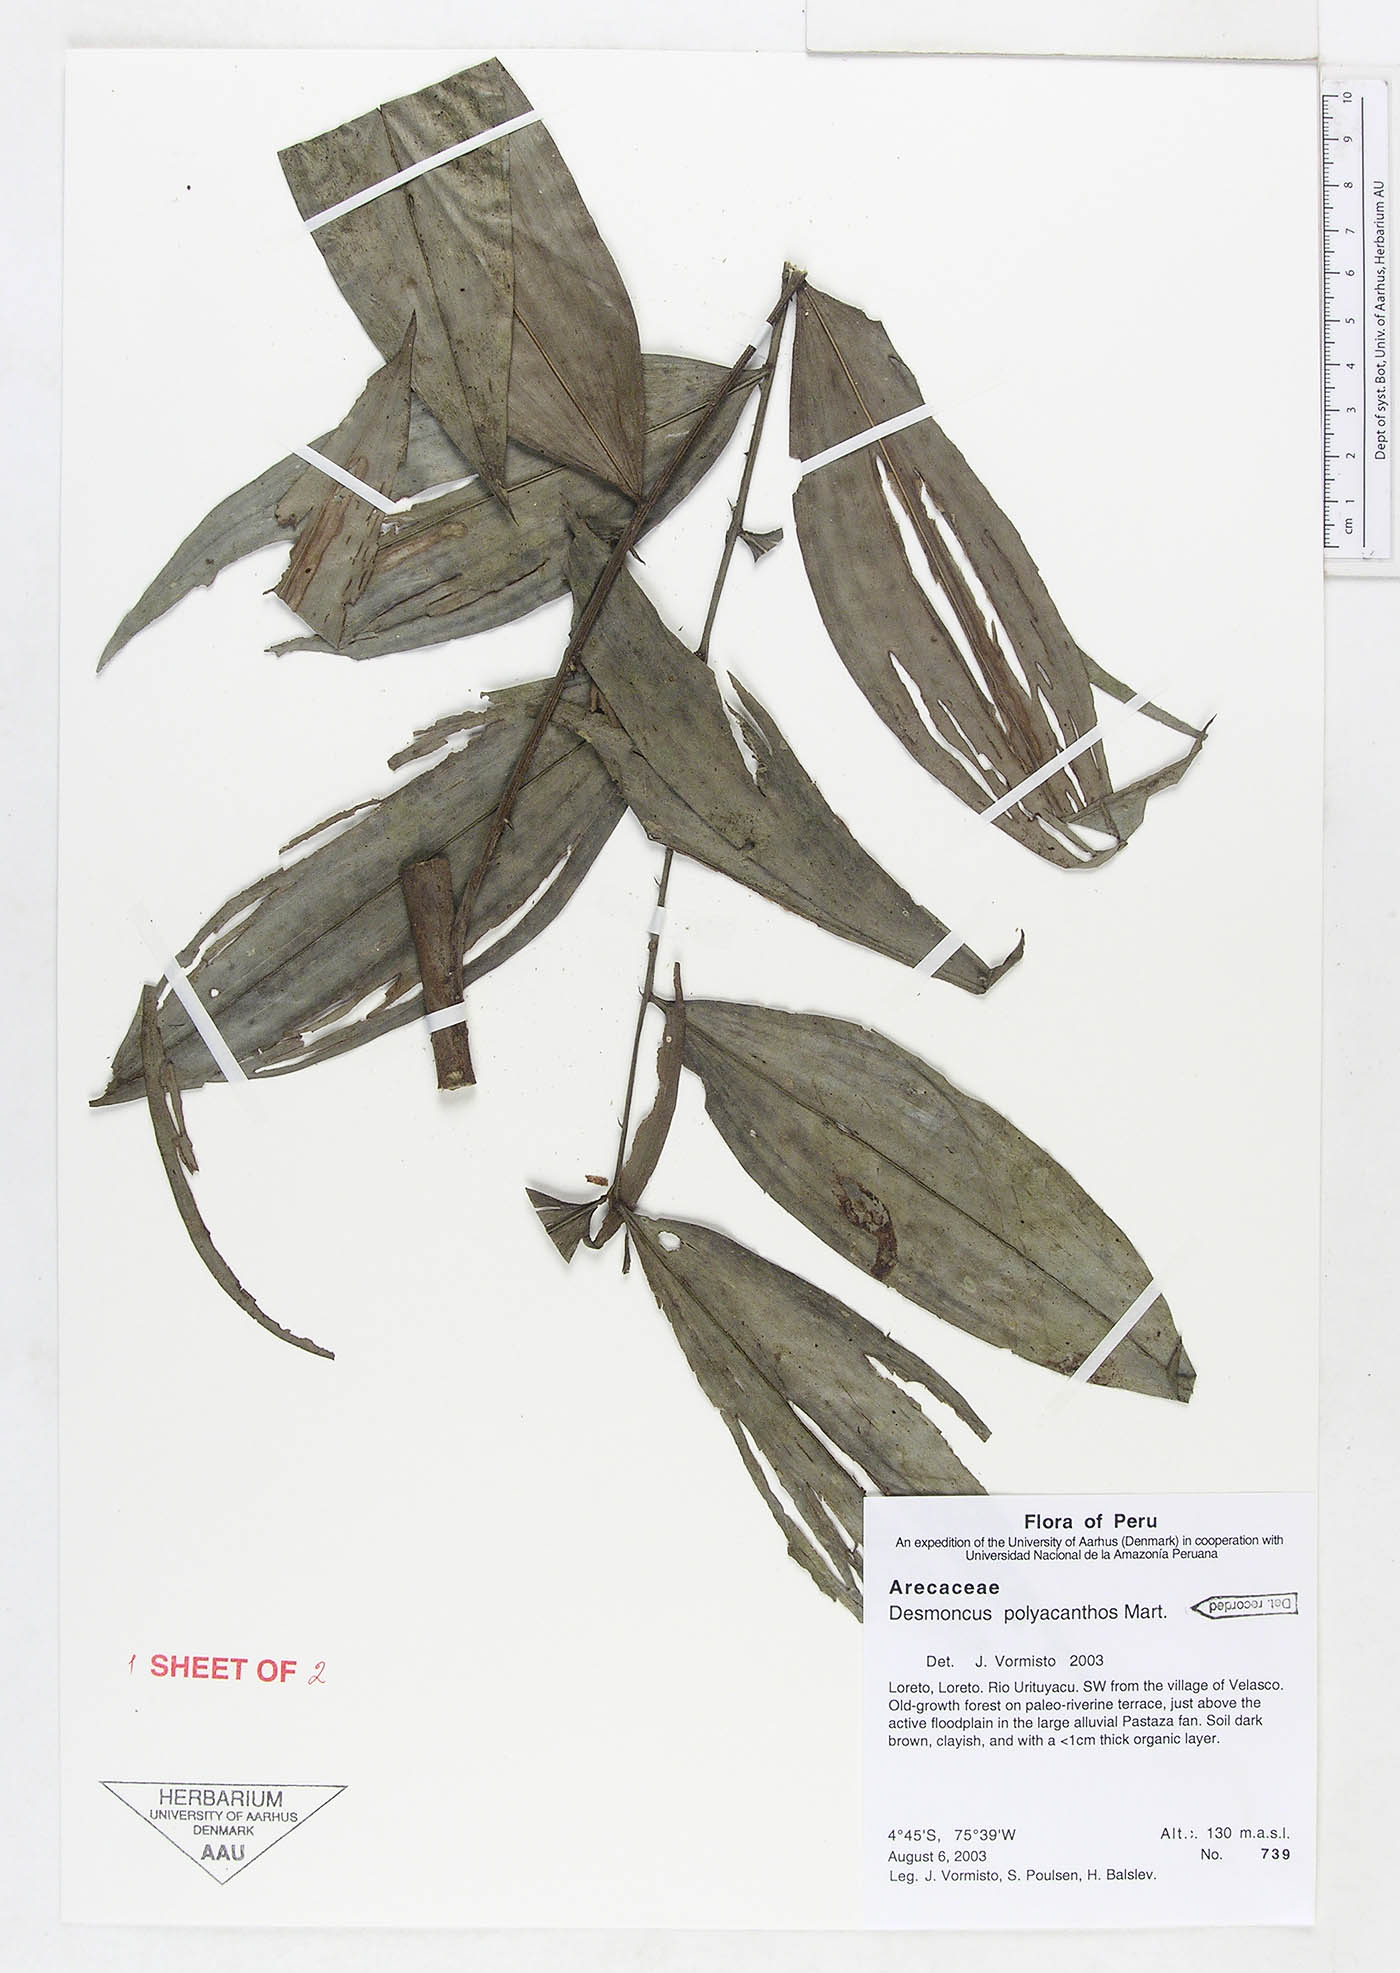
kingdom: Plantae
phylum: Tracheophyta
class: Liliopsida
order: Arecales
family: Arecaceae
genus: Desmoncus
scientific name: Desmoncus polyacanthos
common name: Suriname bramble palm
